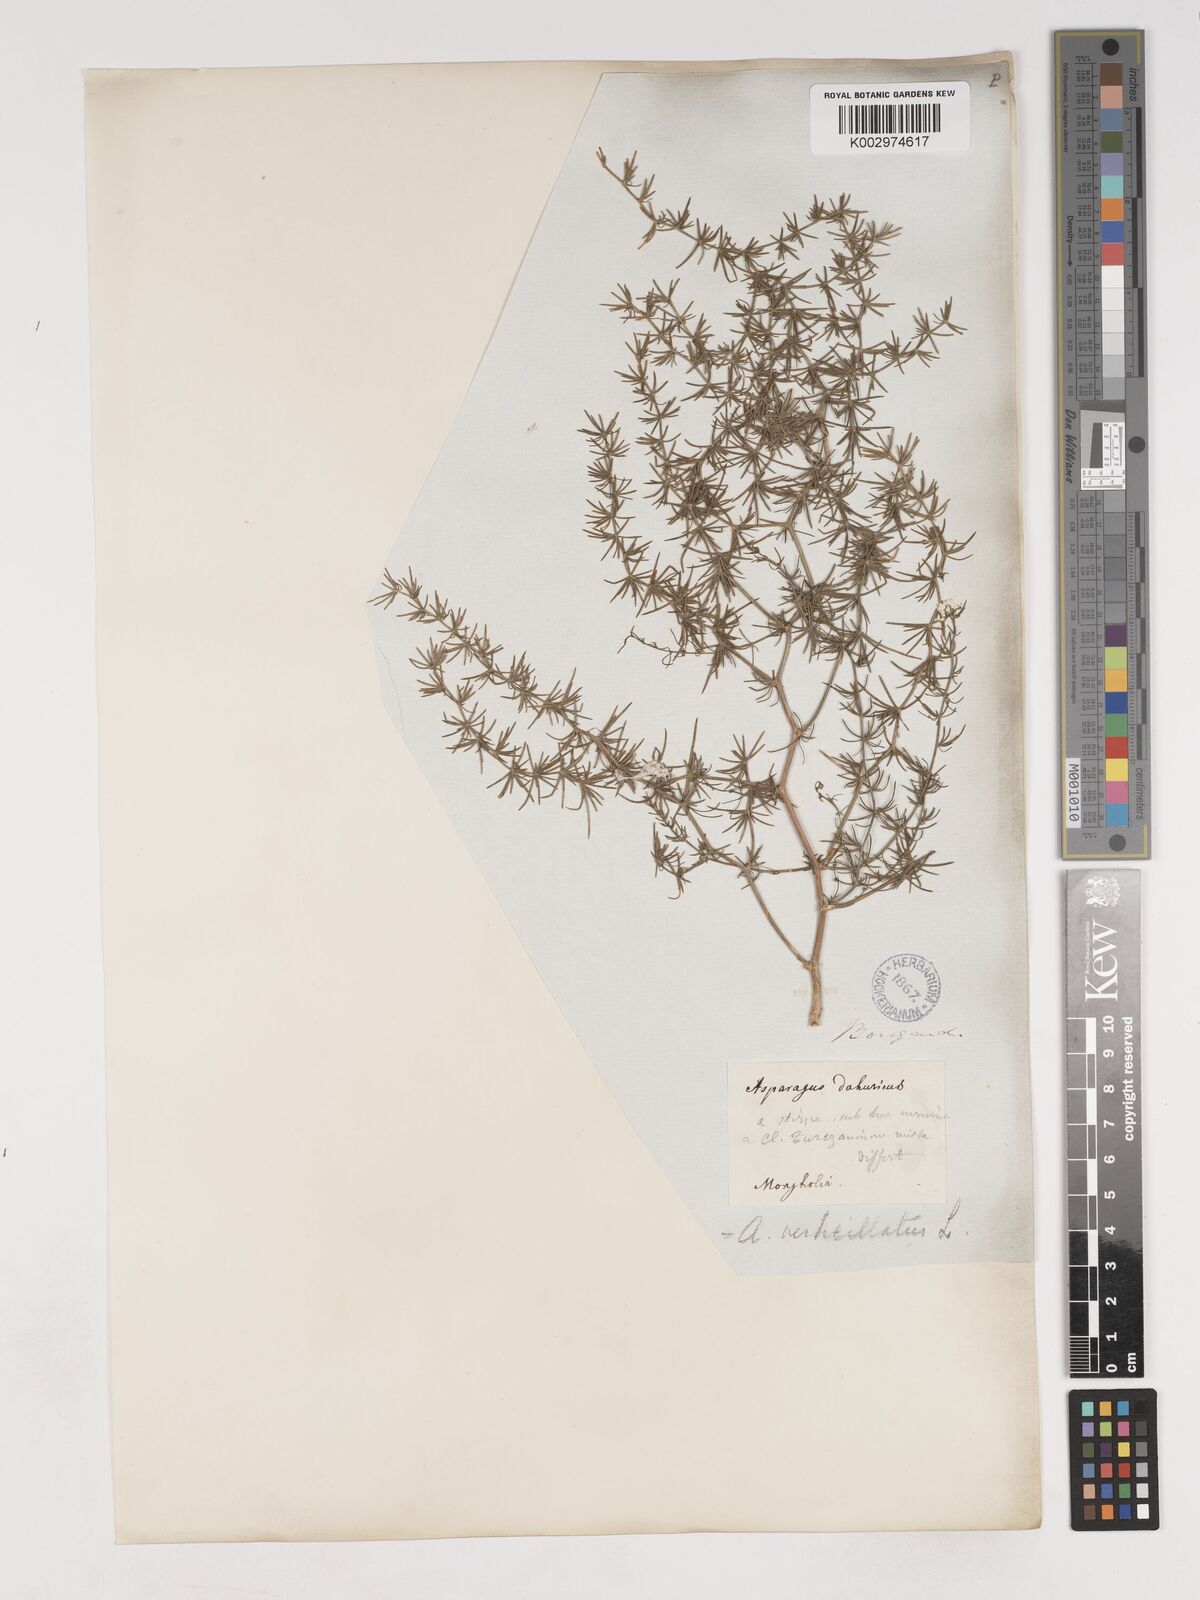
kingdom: Plantae
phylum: Tracheophyta
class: Liliopsida
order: Asparagales
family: Asparagaceae
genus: Asparagus
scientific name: Asparagus verticillatus
